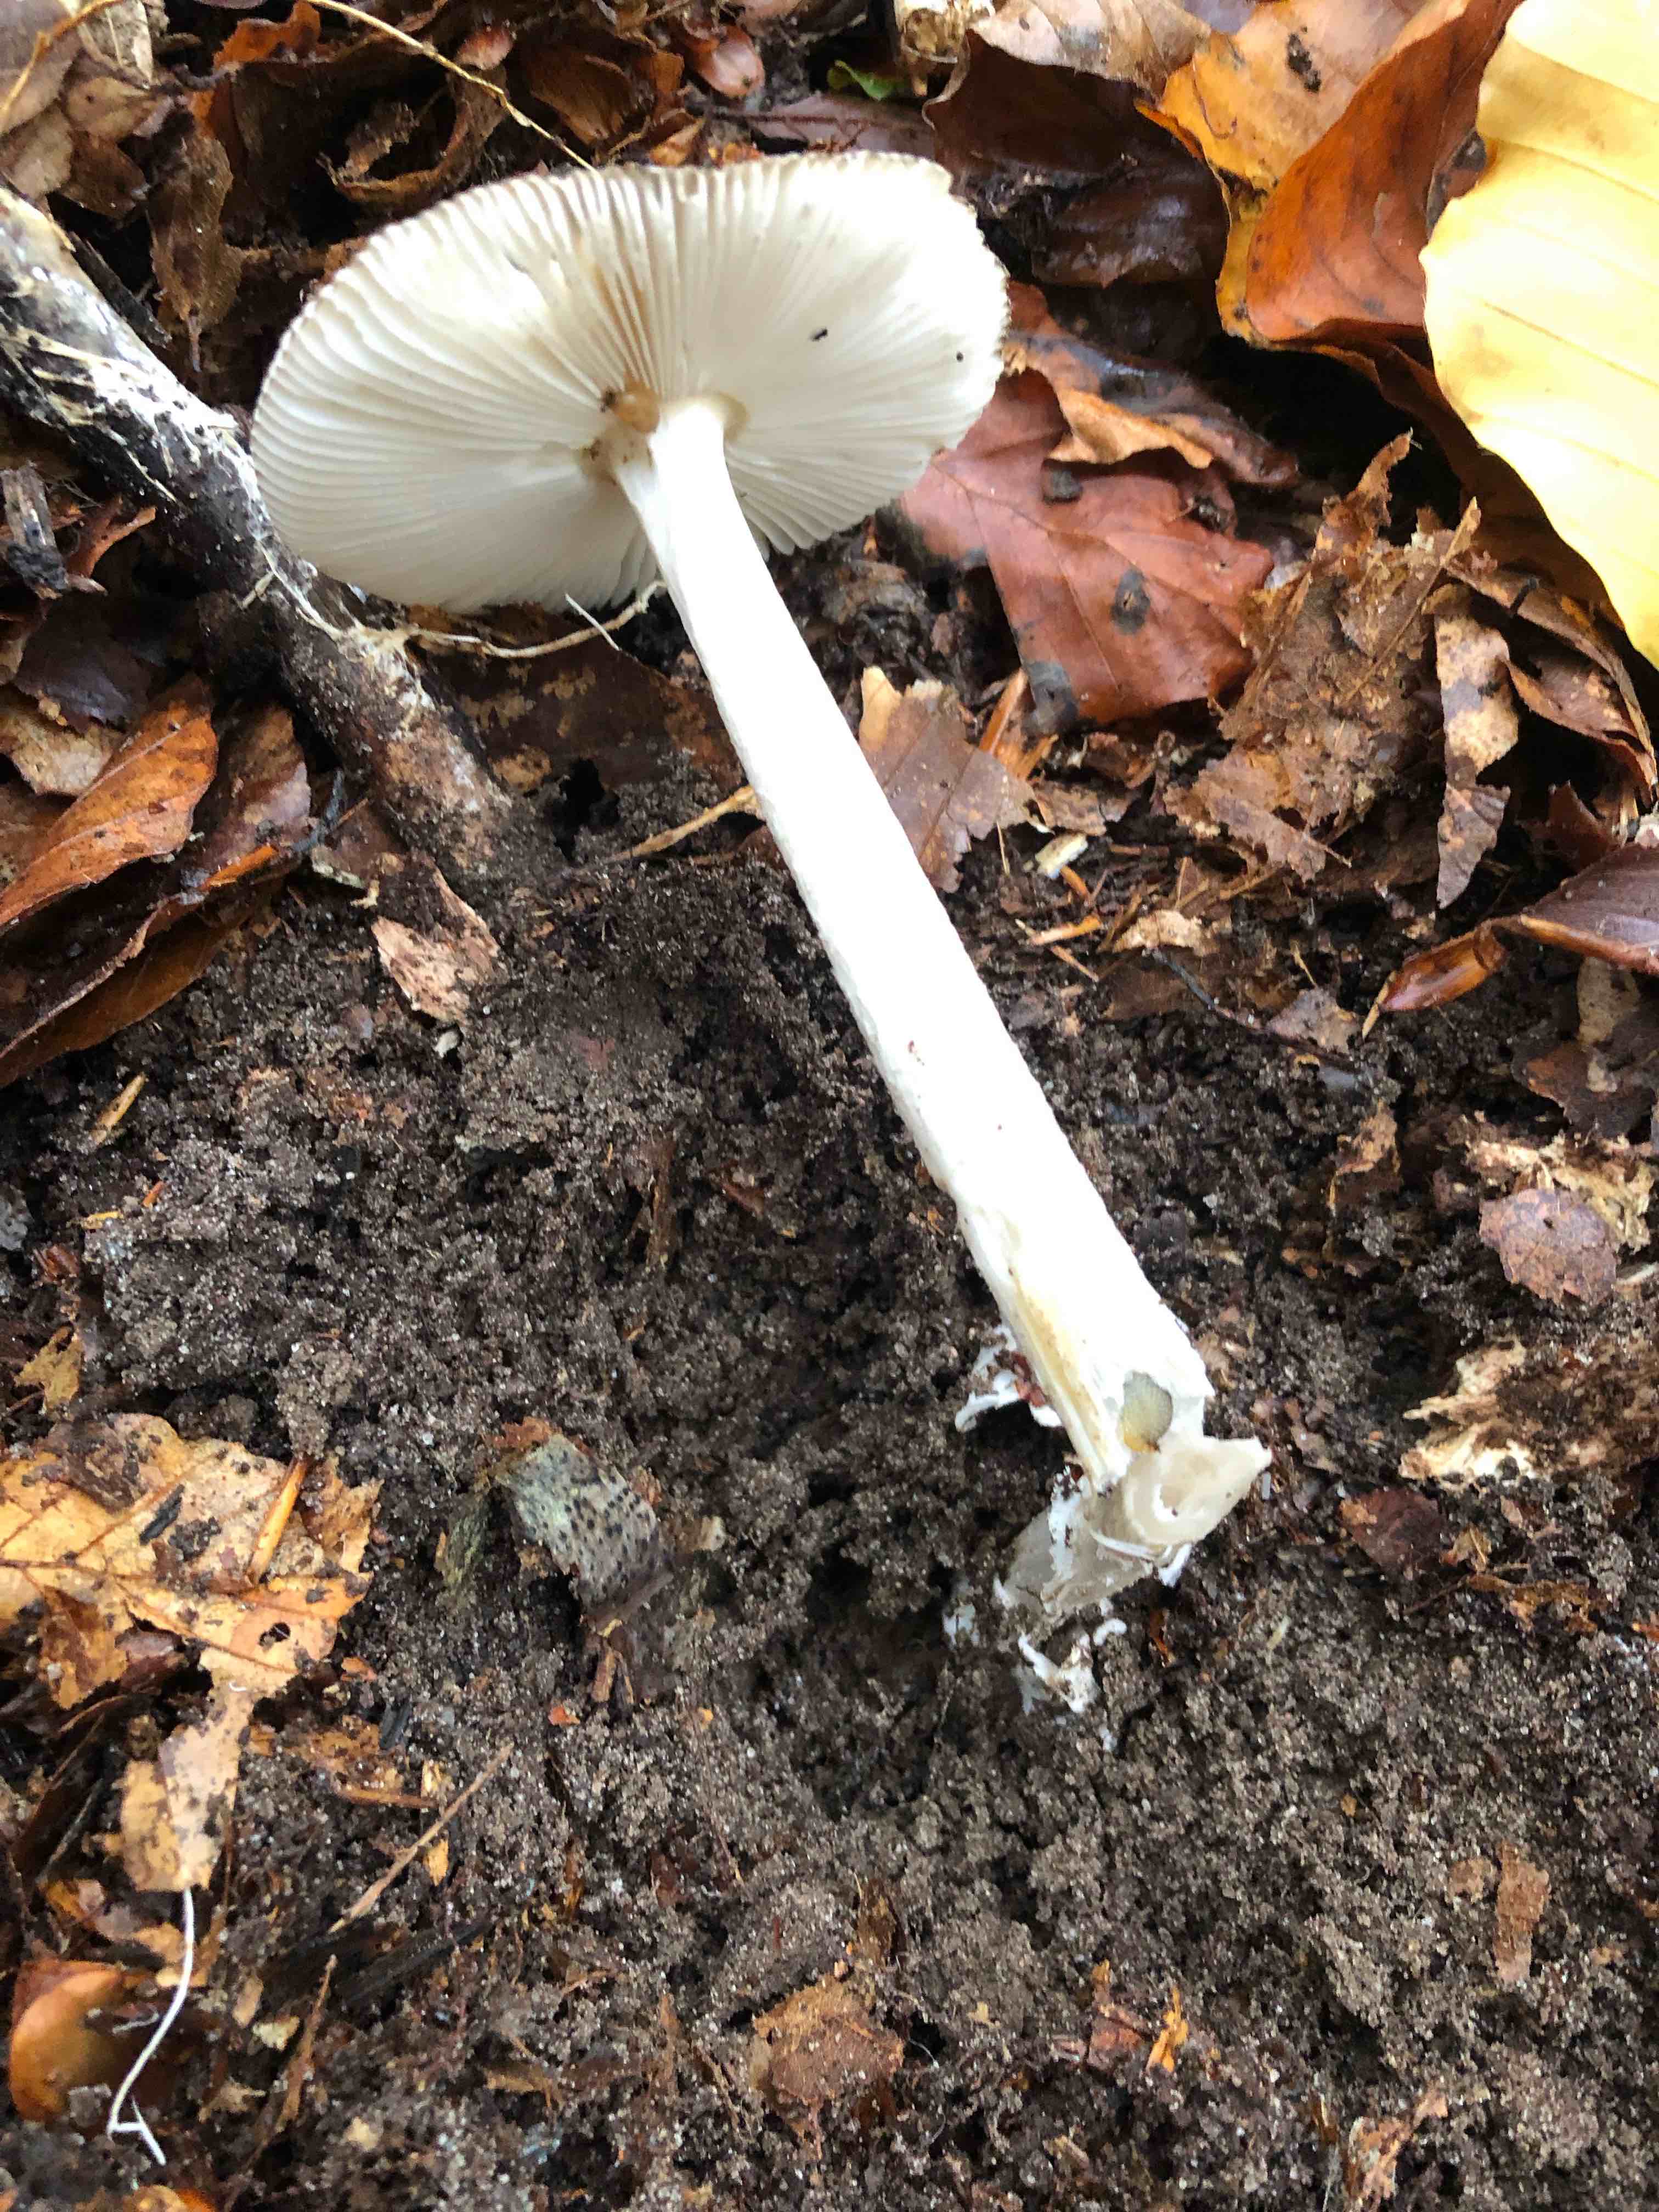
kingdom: Fungi
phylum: Basidiomycota
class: Agaricomycetes
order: Agaricales
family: Amanitaceae
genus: Amanita
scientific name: Amanita vaginata
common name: grå kam-fluesvamp
